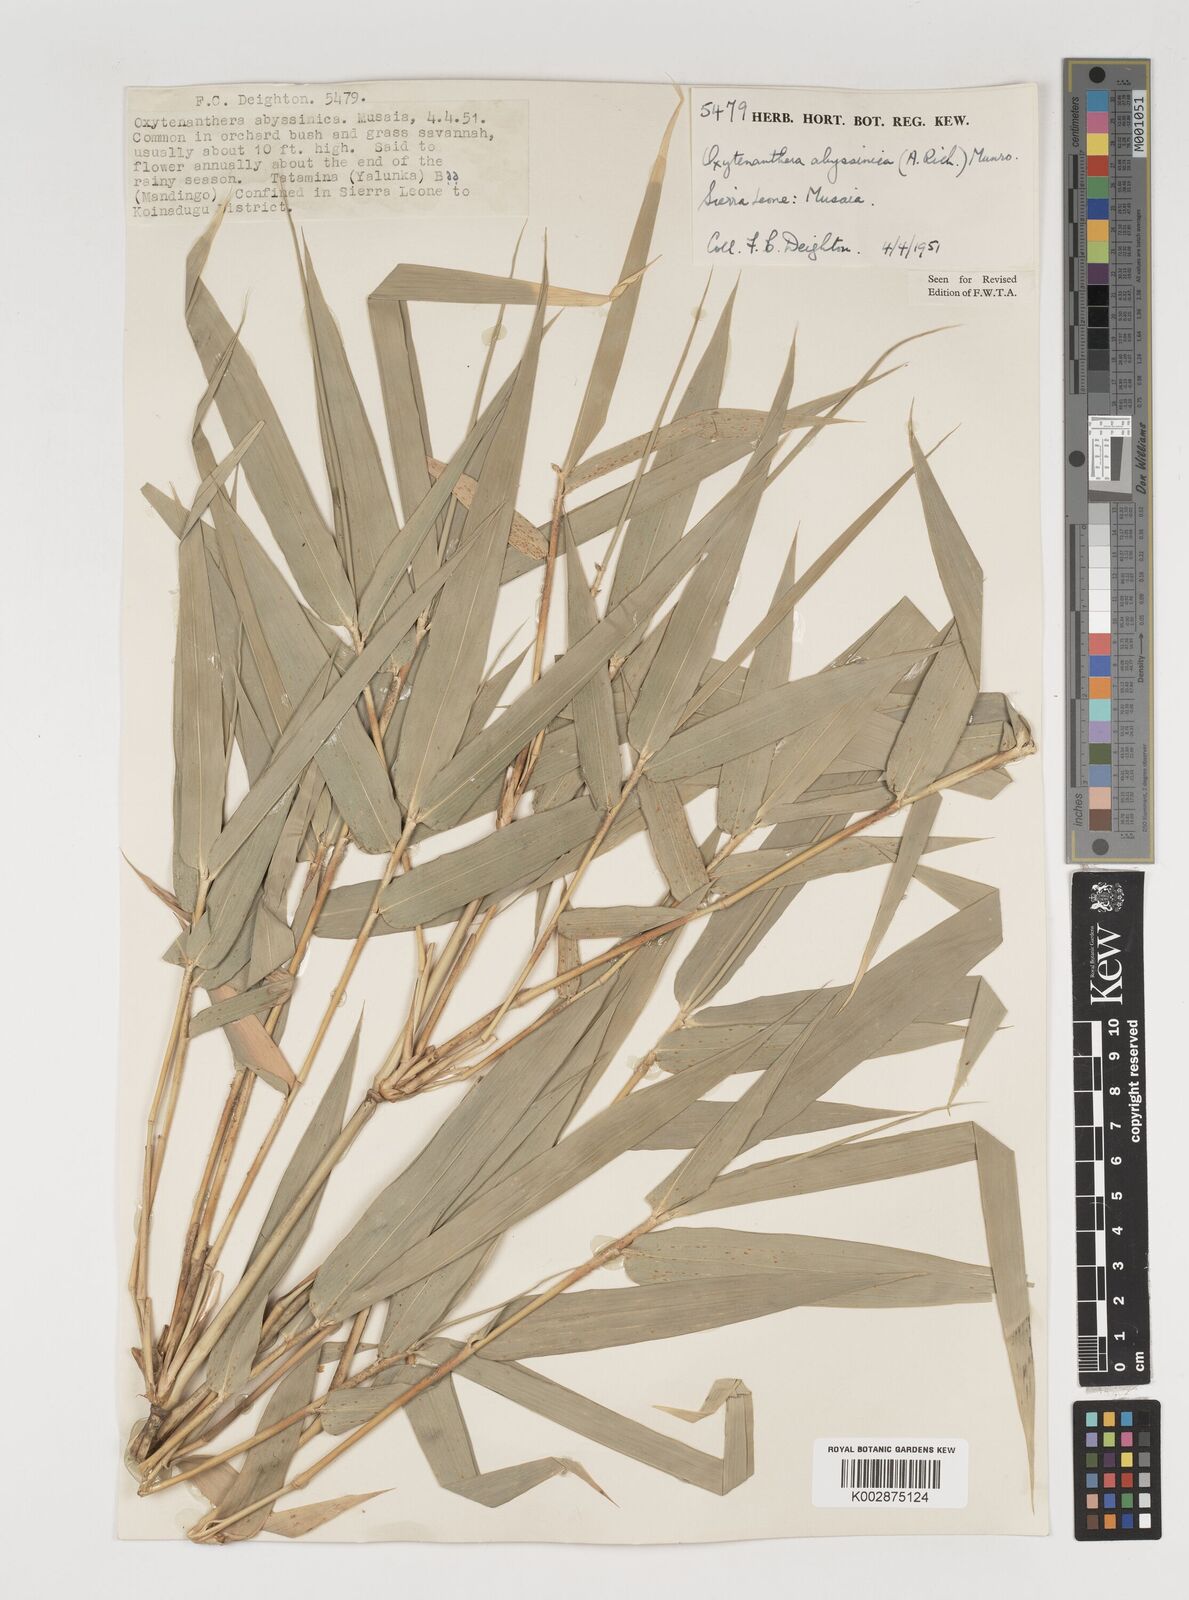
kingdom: Plantae
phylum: Tracheophyta
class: Liliopsida
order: Poales
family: Poaceae
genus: Oxytenanthera
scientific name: Oxytenanthera abyssinica
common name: Wine bamboo
